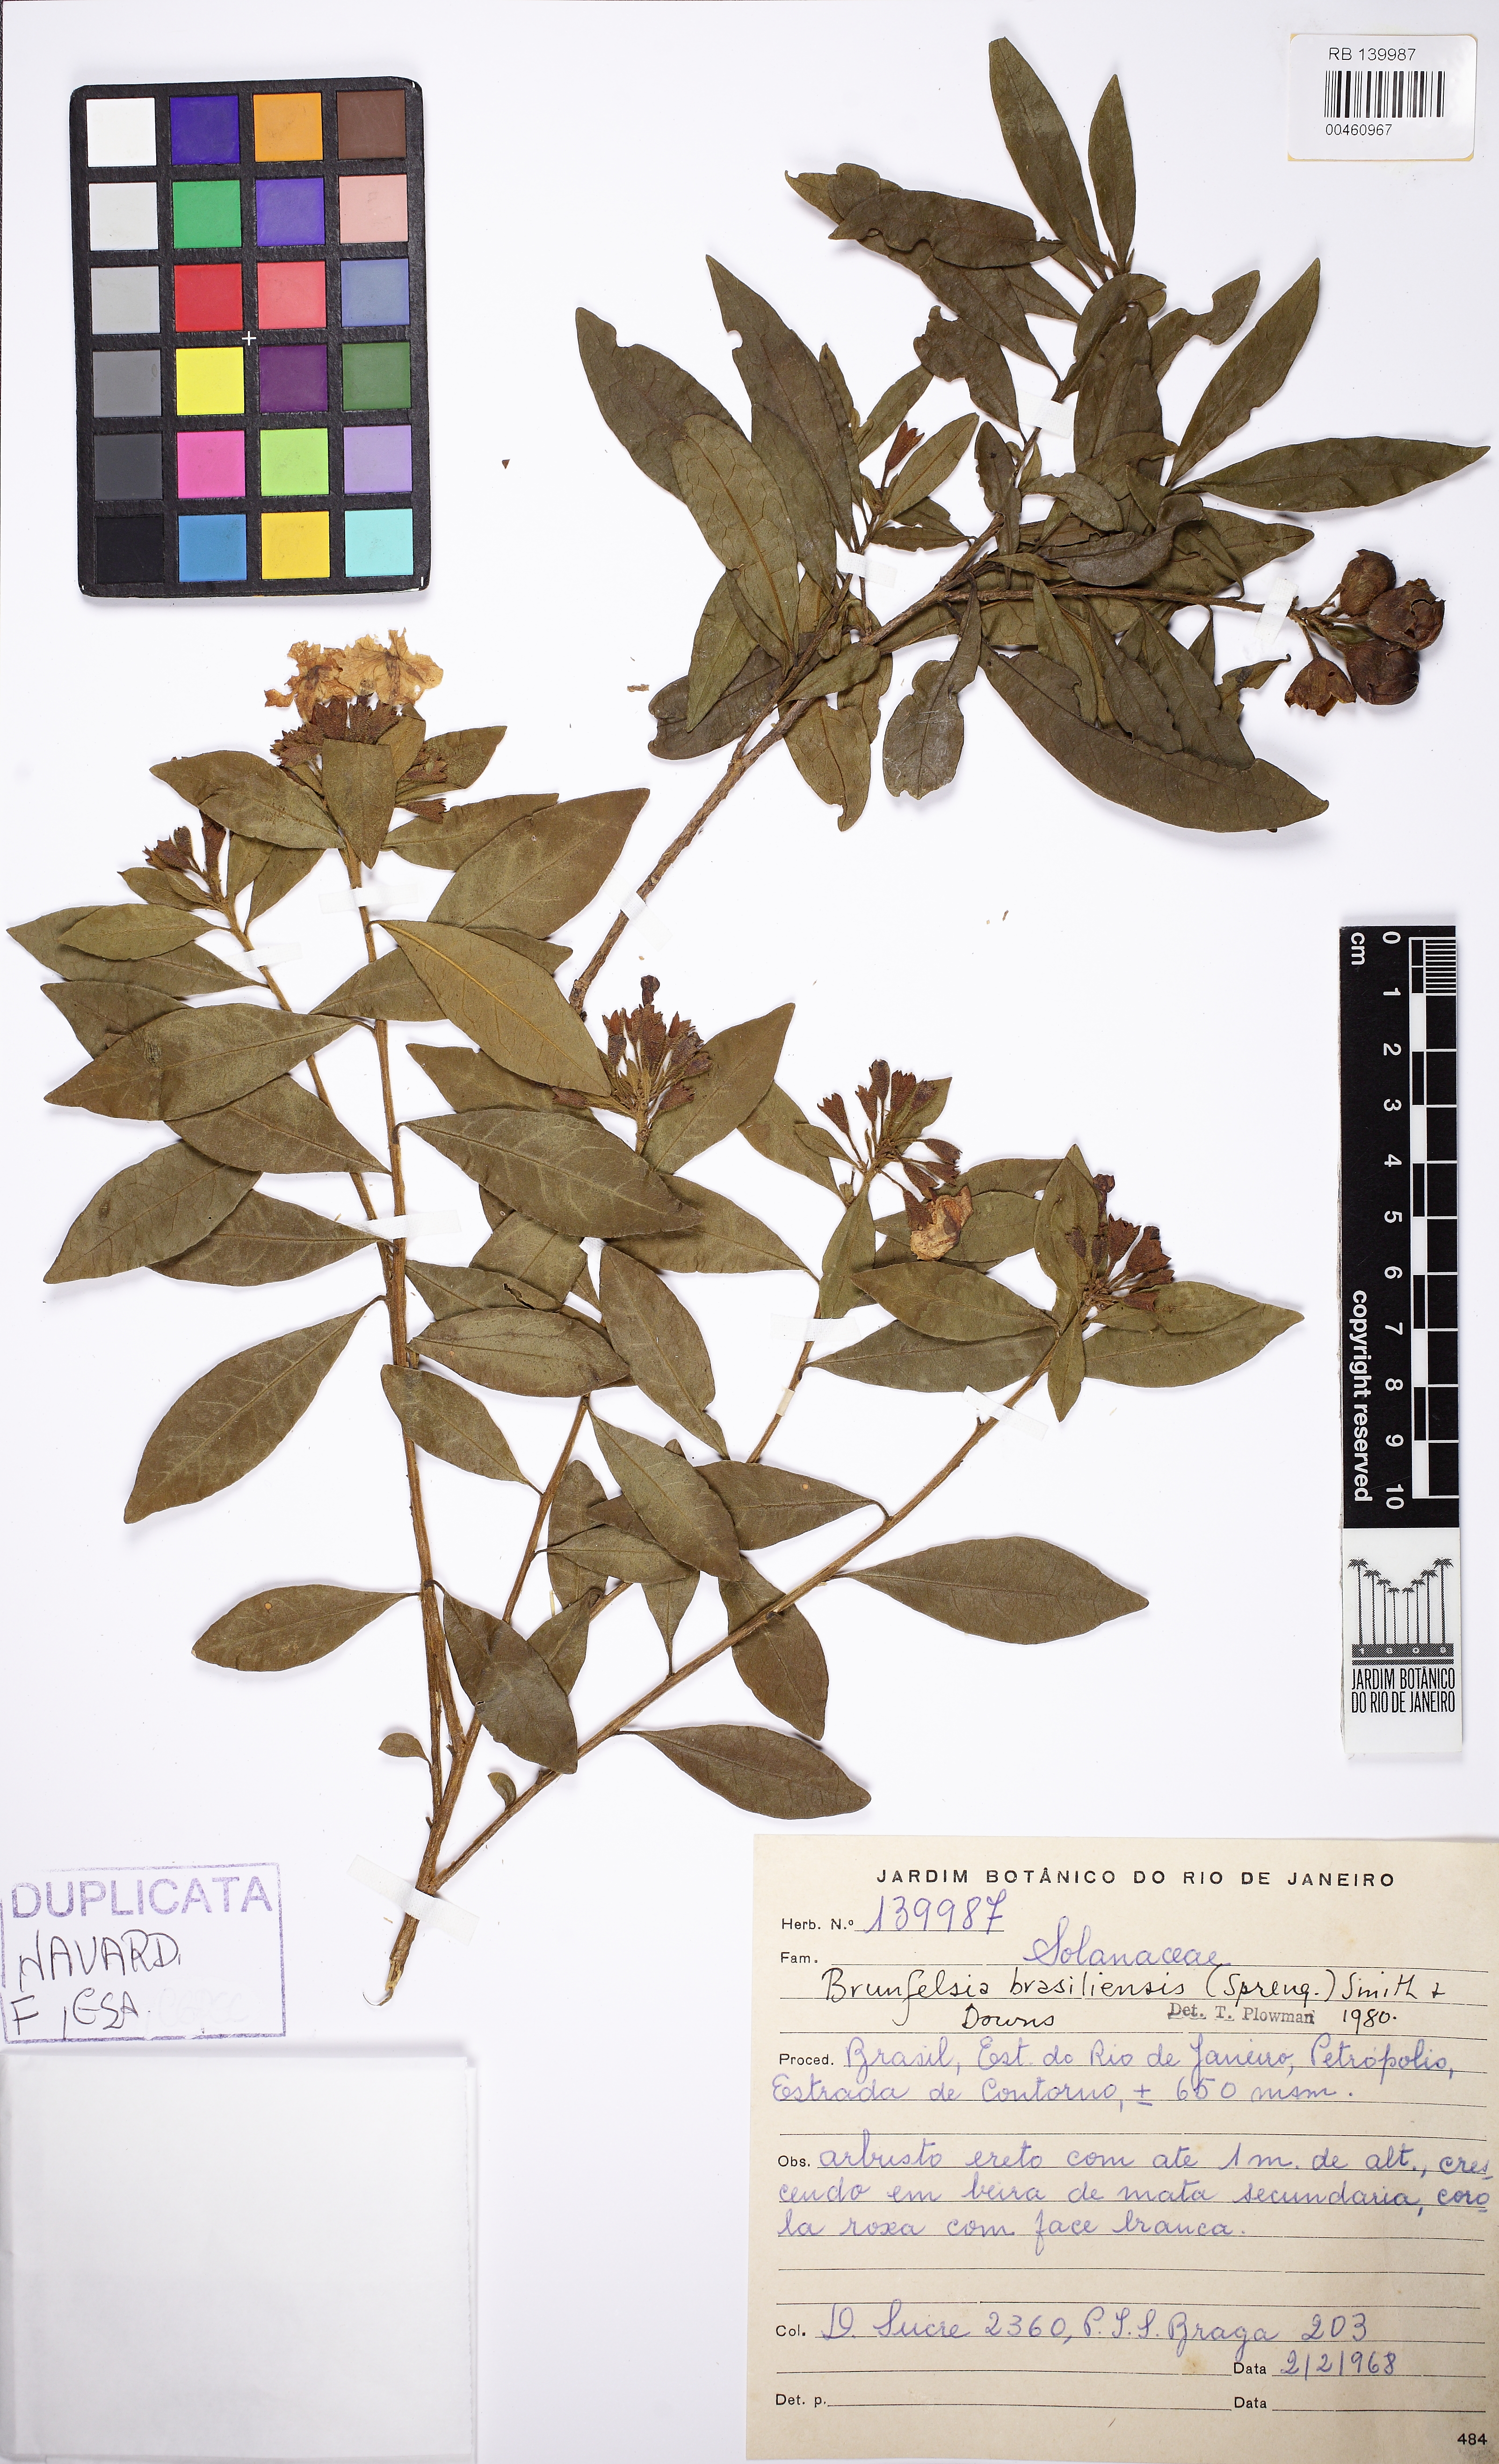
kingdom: Plantae
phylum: Tracheophyta
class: Magnoliopsida
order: Solanales
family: Solanaceae
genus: Brunfelsia
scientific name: Brunfelsia brasiliensis
